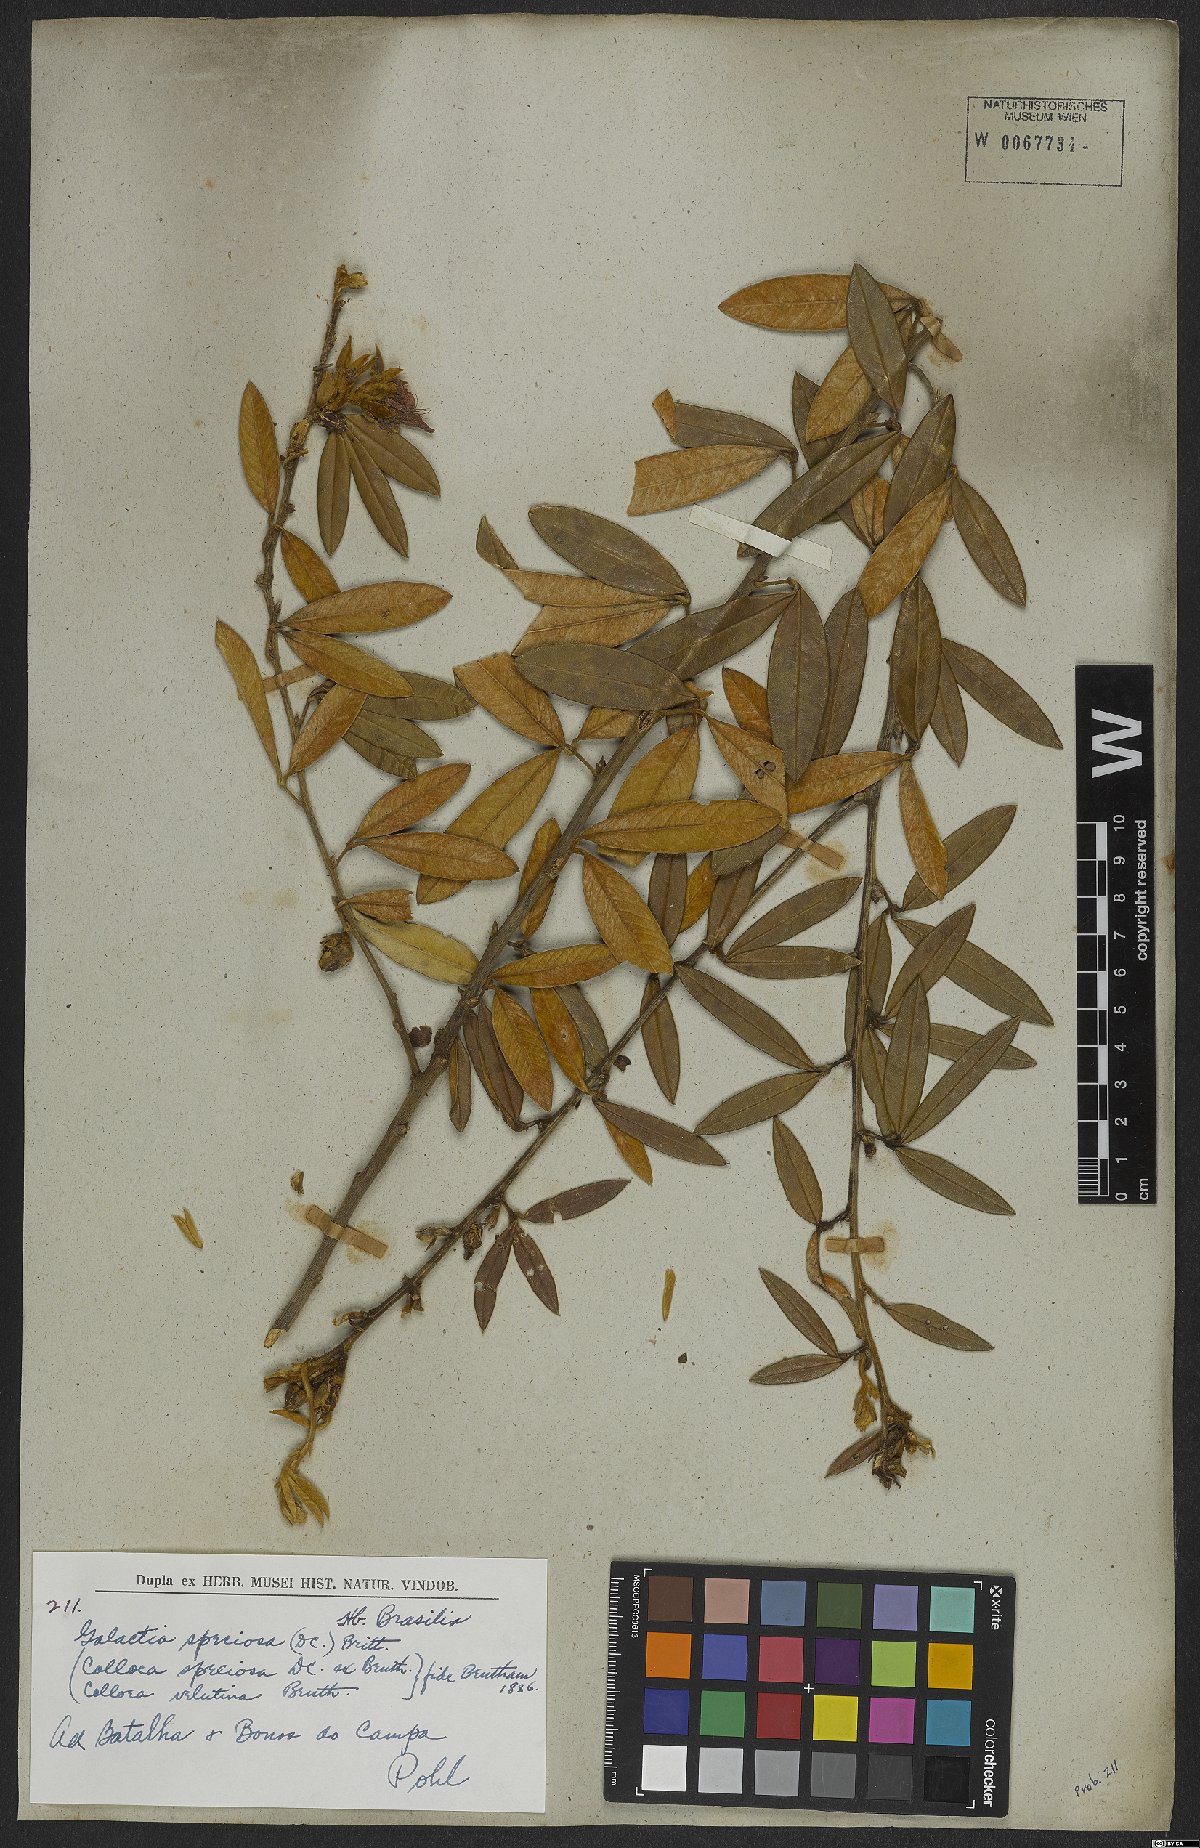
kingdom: Plantae
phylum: Tracheophyta
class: Magnoliopsida
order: Fabales
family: Fabaceae
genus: Collaea
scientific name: Collaea speciosa
